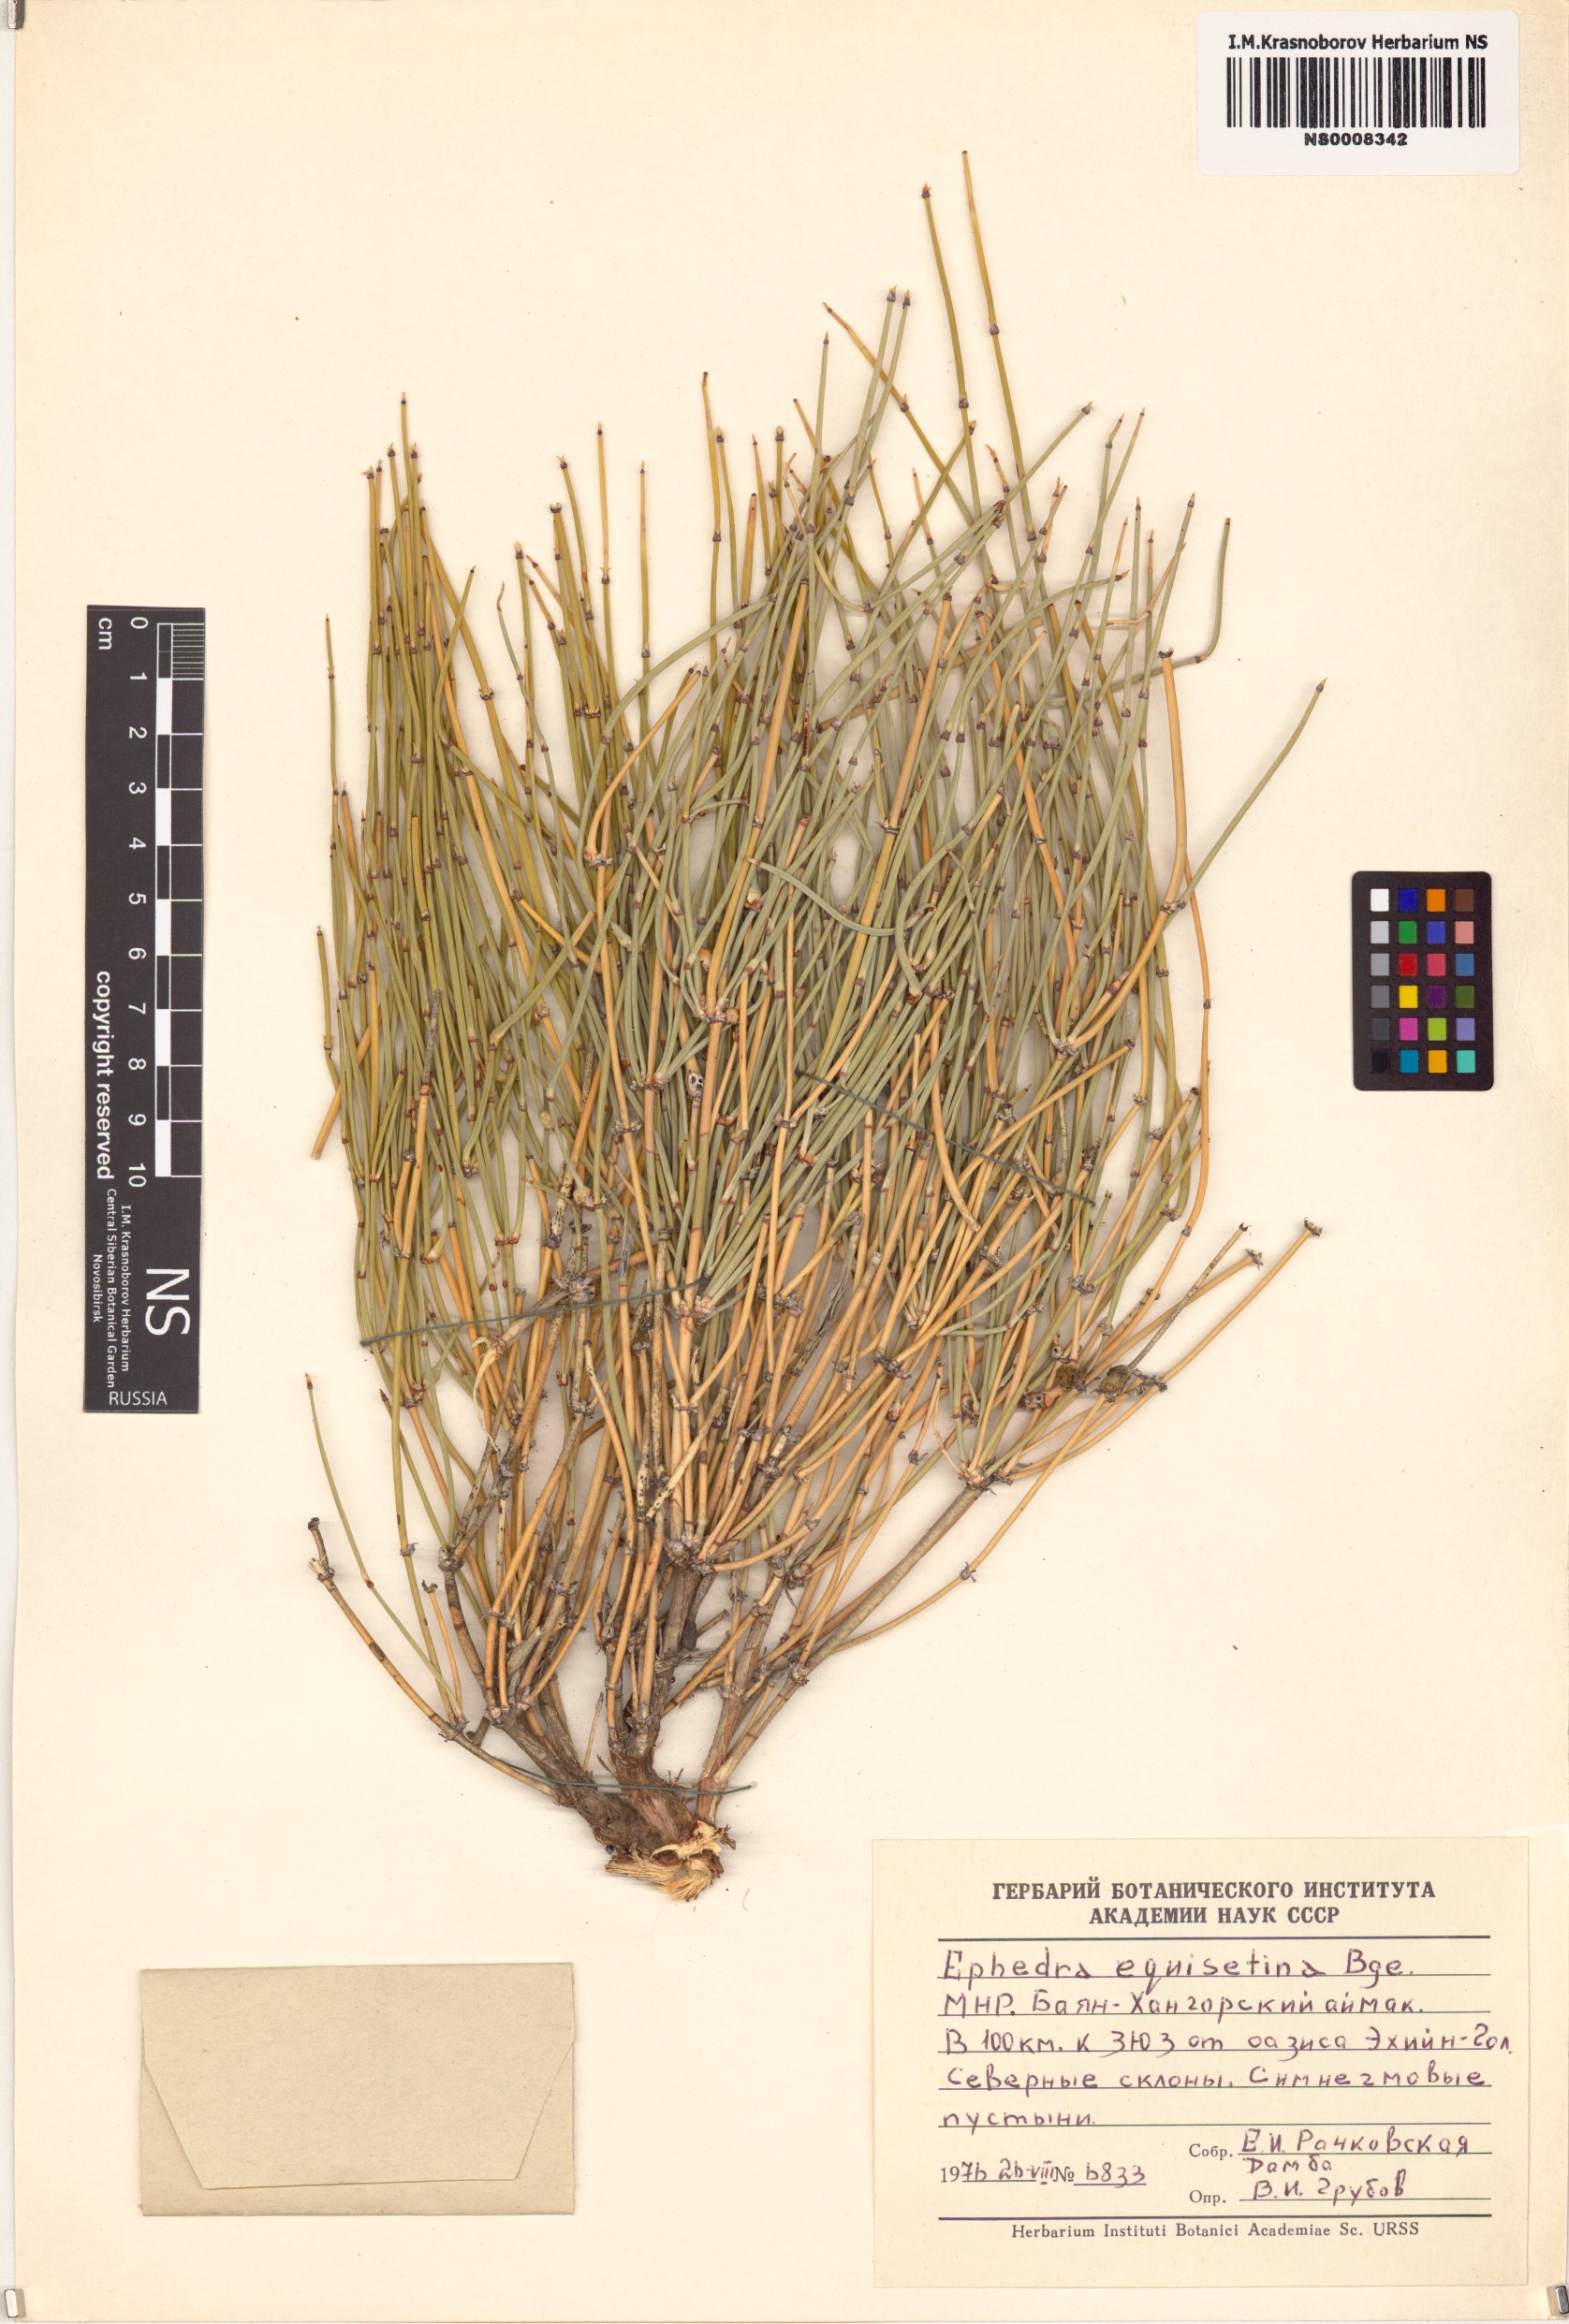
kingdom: Plantae
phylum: Tracheophyta
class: Gnetopsida
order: Ephedrales
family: Ephedraceae
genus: Ephedra
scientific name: Ephedra equisetina
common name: Mongolian ephedra
